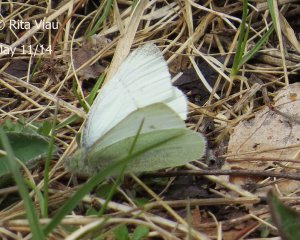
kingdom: Animalia
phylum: Arthropoda
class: Insecta
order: Lepidoptera
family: Pieridae
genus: Pieris
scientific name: Pieris rapae
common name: Cabbage White
